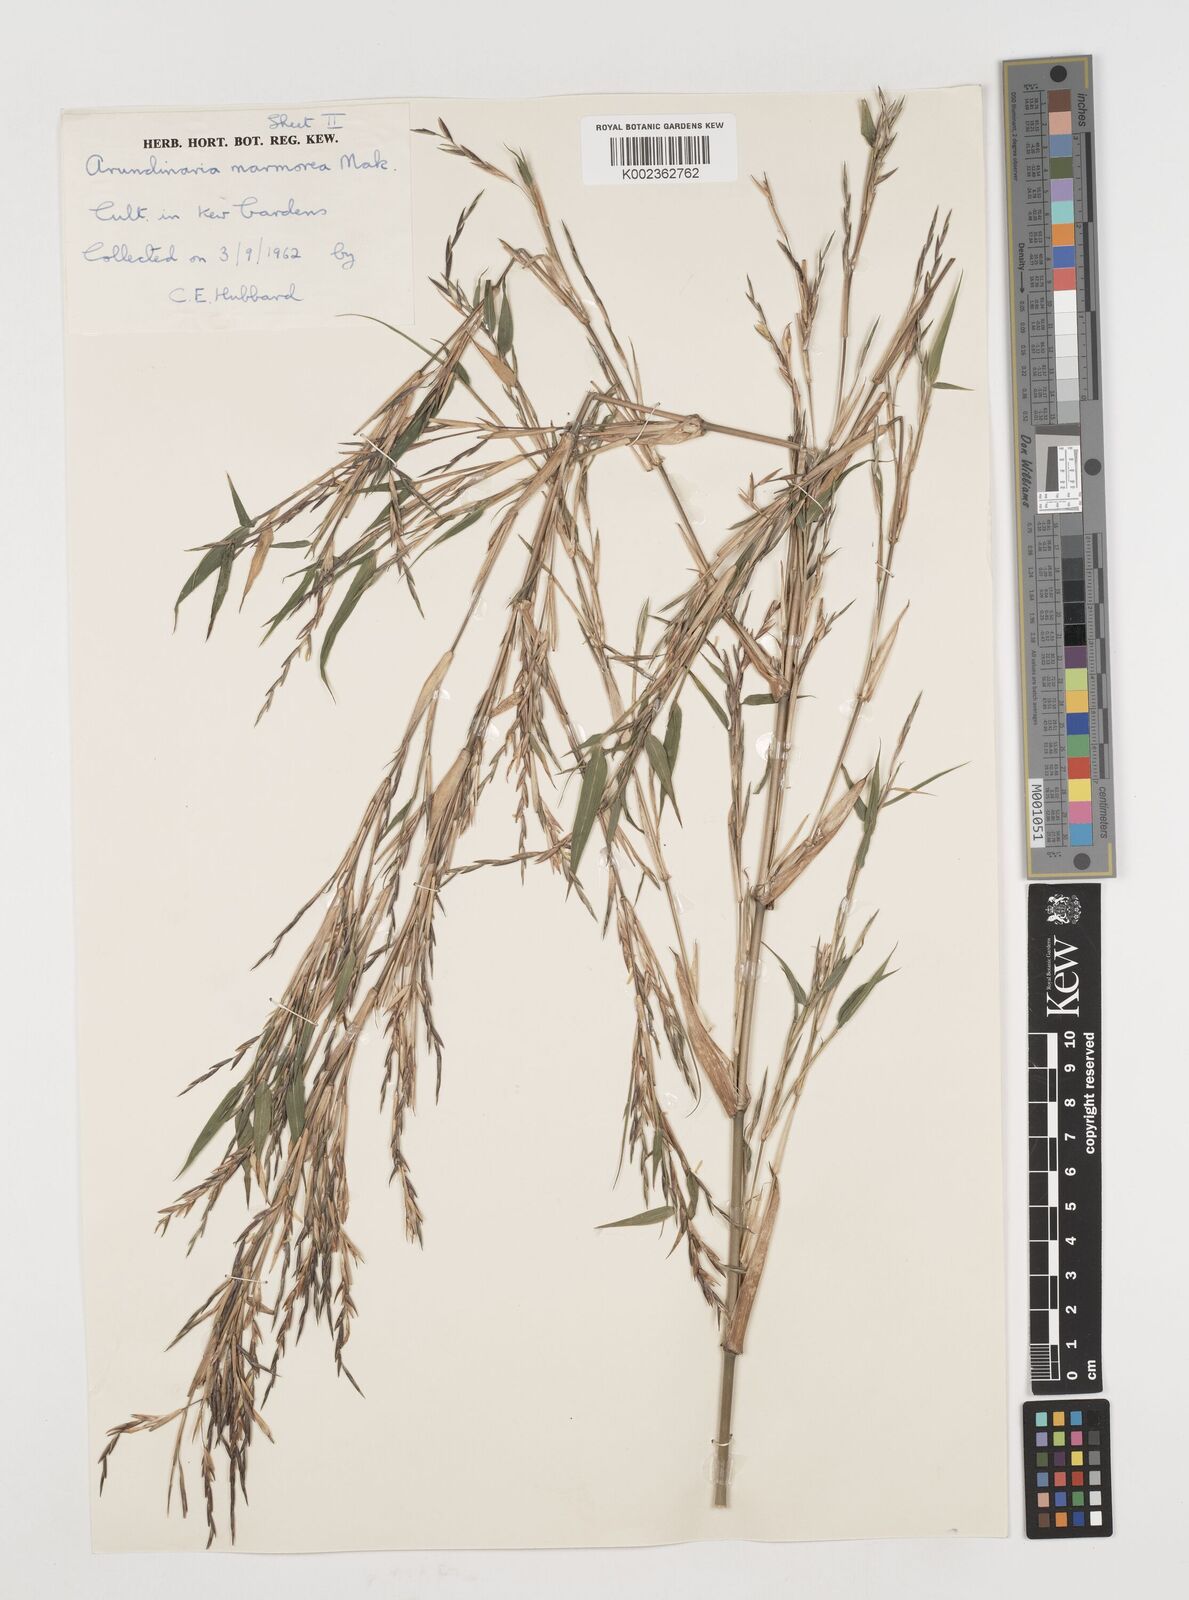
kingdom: Plantae
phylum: Tracheophyta
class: Liliopsida
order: Poales
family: Poaceae
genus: Chimonobambusa
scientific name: Chimonobambusa marmorea
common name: Marbled bamboo
